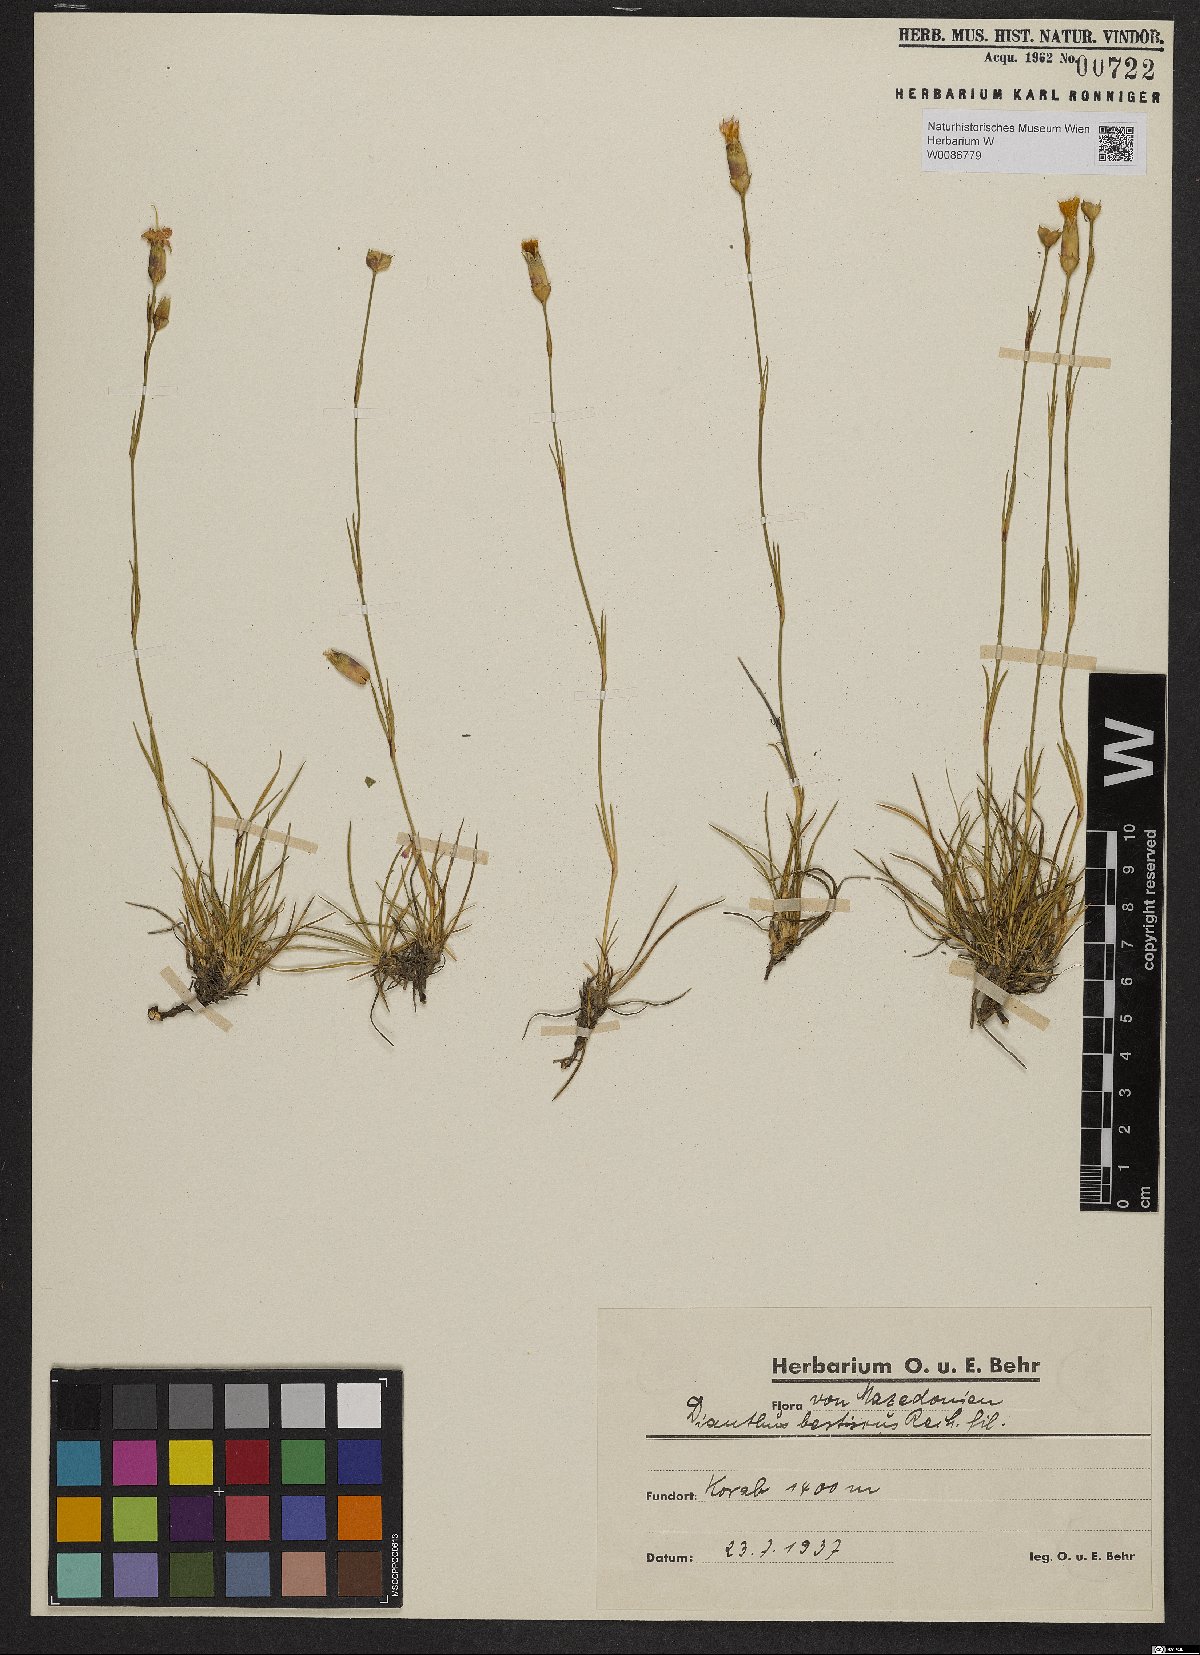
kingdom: Plantae
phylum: Tracheophyta
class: Magnoliopsida
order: Caryophyllales
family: Caryophyllaceae
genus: Dianthus
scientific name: Dianthus sylvestris
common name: Wood pink
